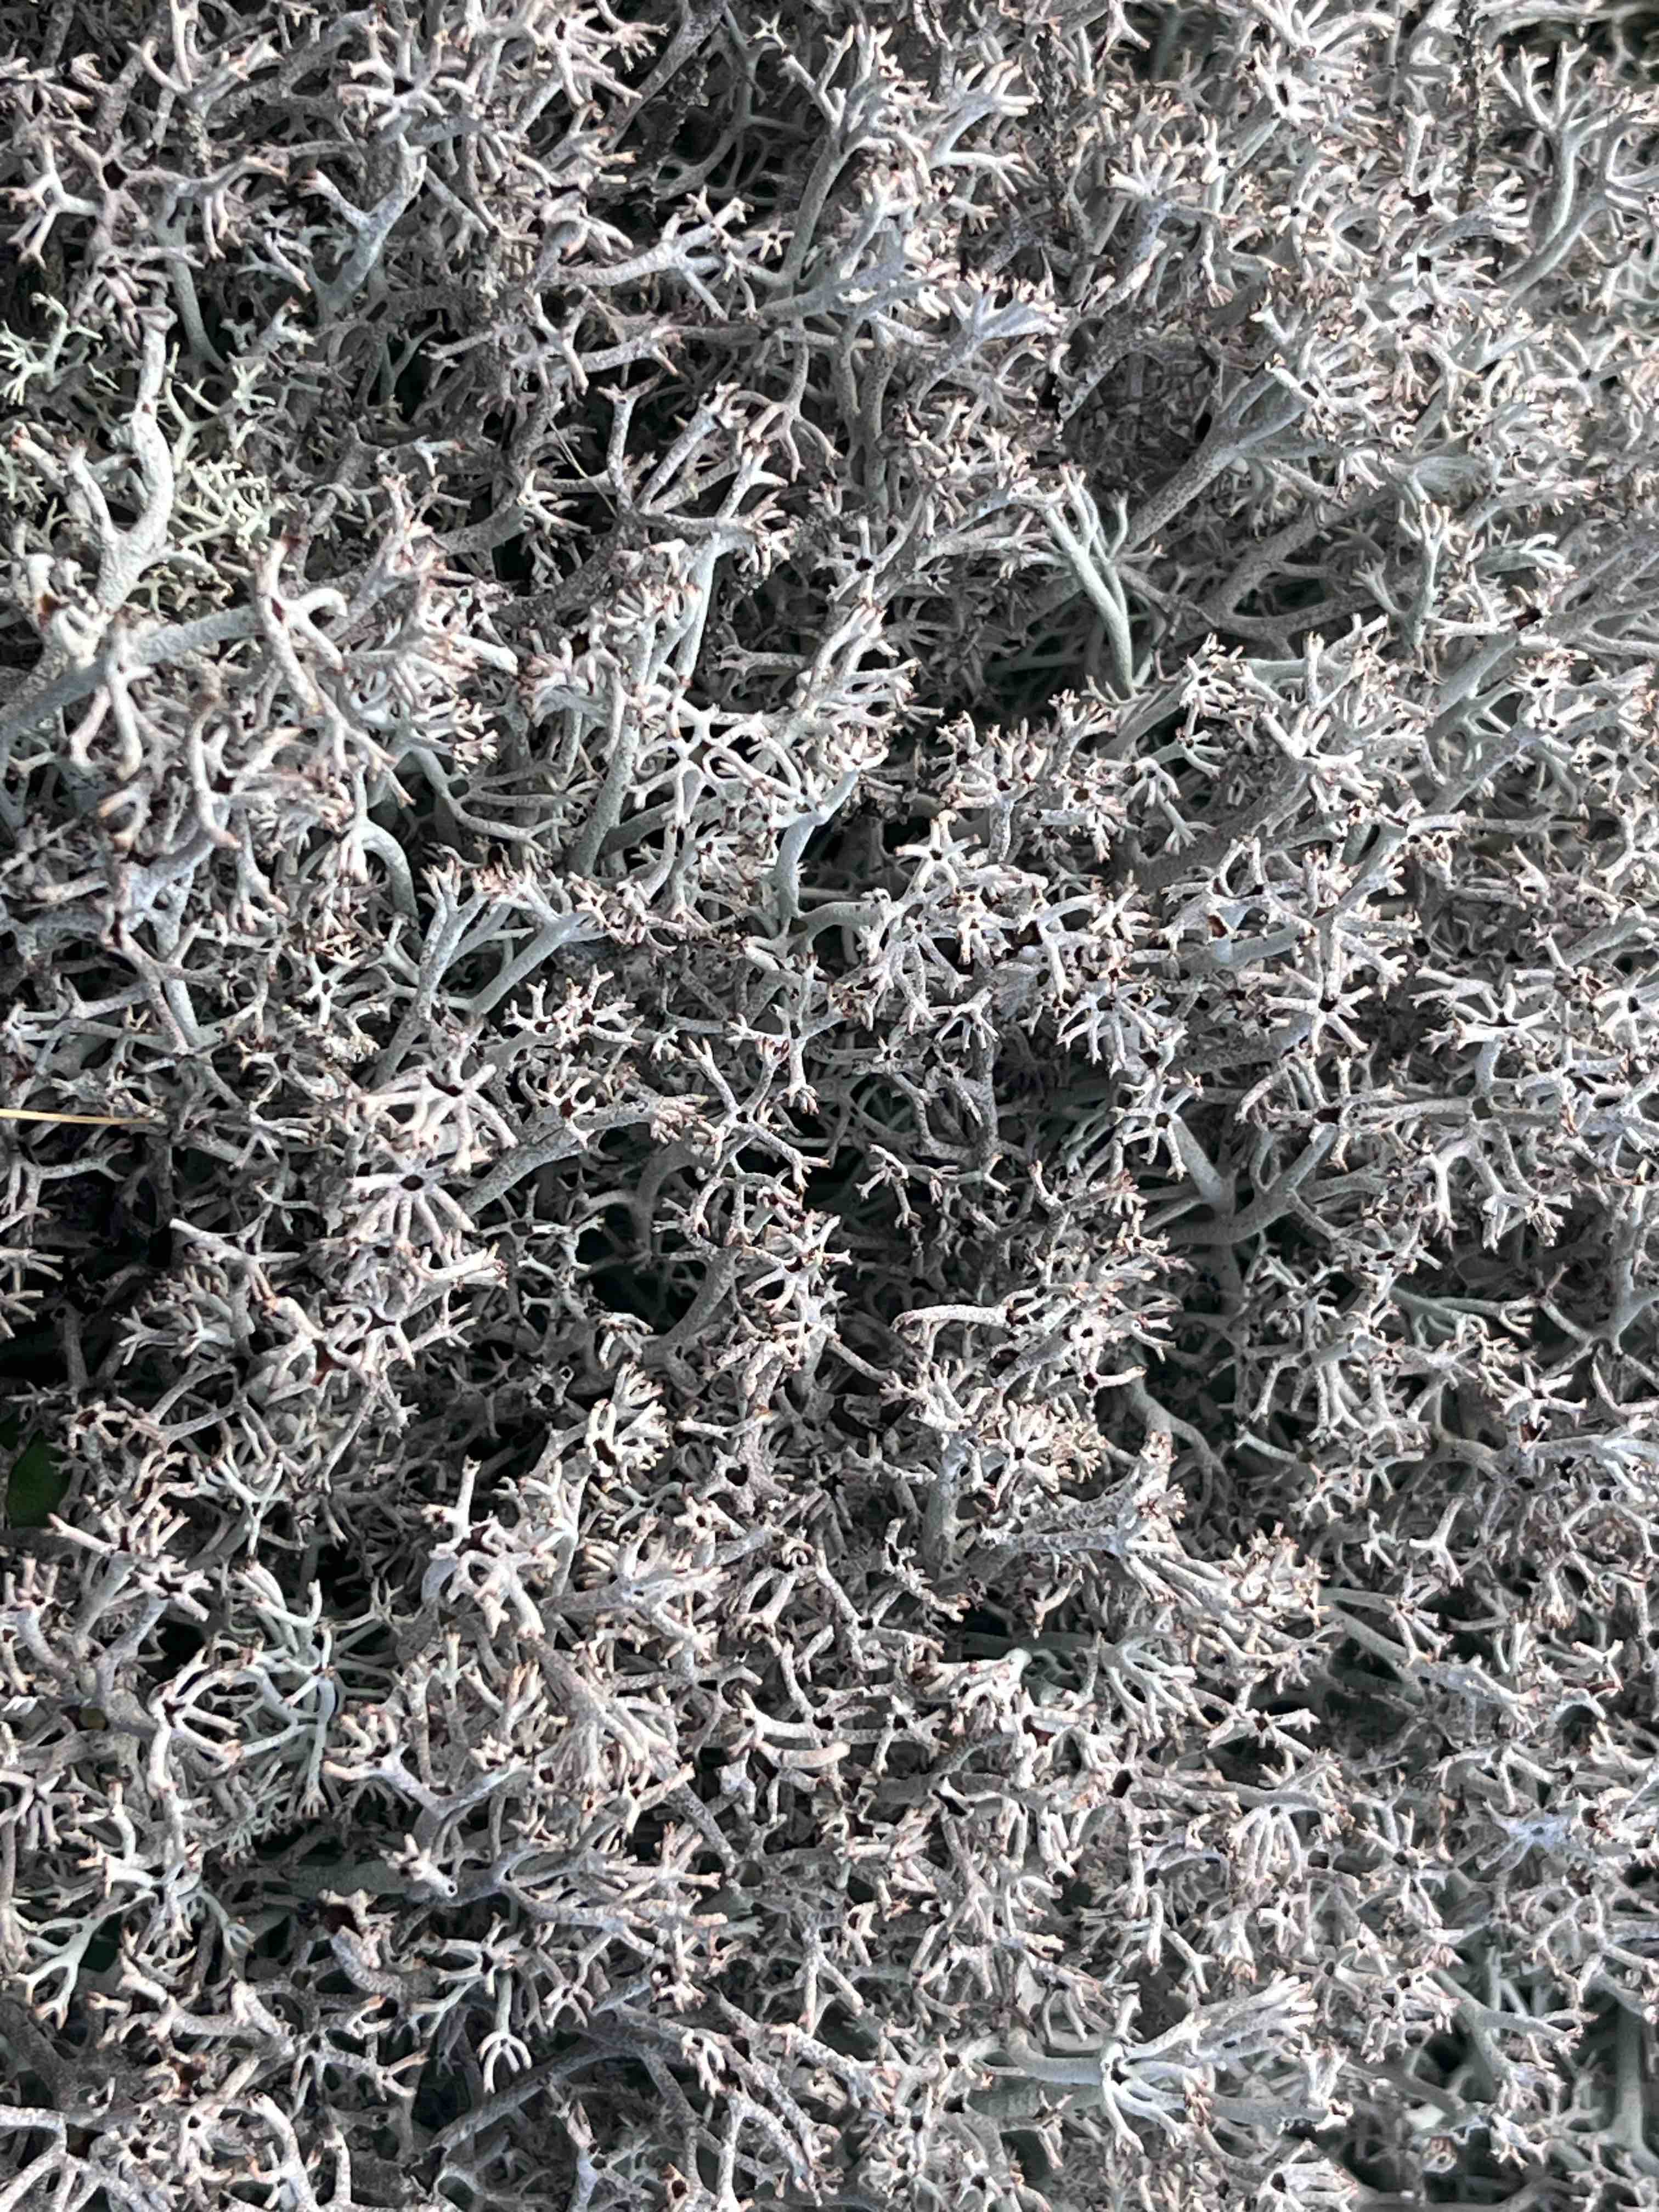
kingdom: Fungi
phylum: Ascomycota
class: Lecanoromycetes
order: Lecanorales
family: Cladoniaceae
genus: Cladonia
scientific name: Cladonia rangiferina
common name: askegrå rensdyrlav
